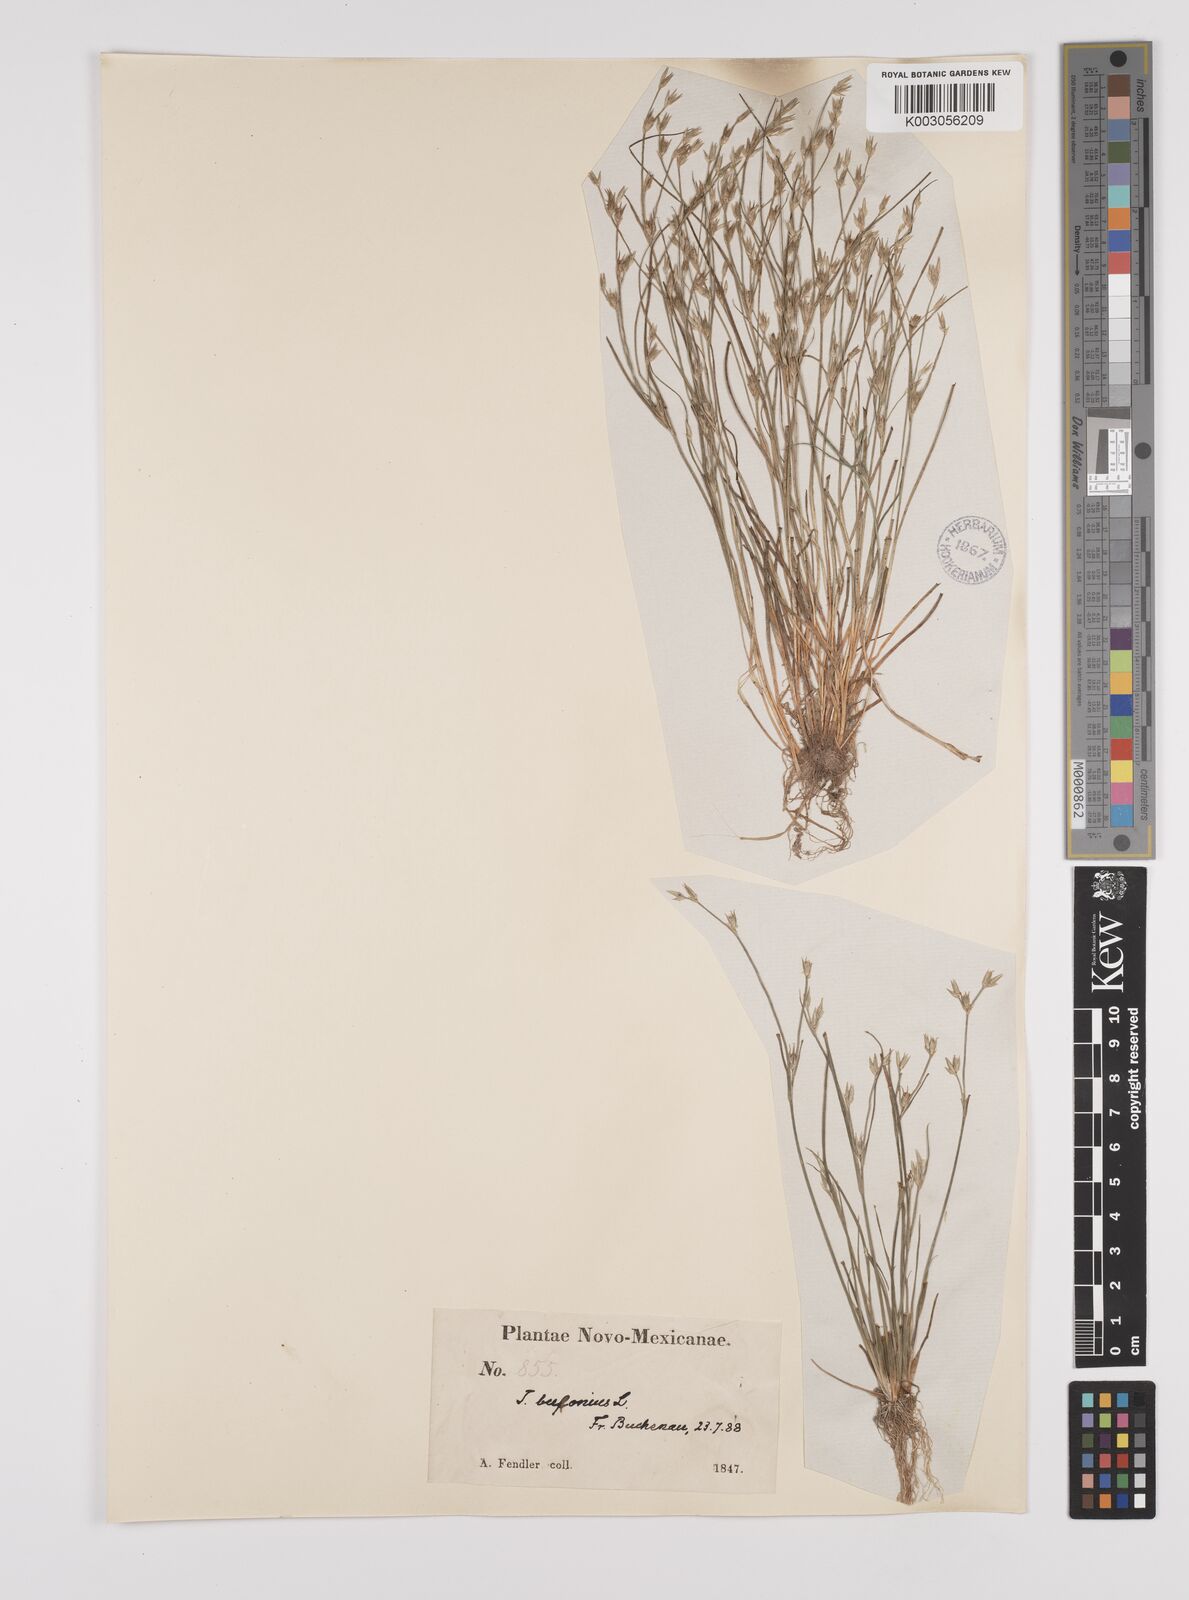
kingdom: Plantae
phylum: Tracheophyta
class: Liliopsida
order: Poales
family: Juncaceae
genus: Juncus
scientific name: Juncus bufonius
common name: Toad rush
